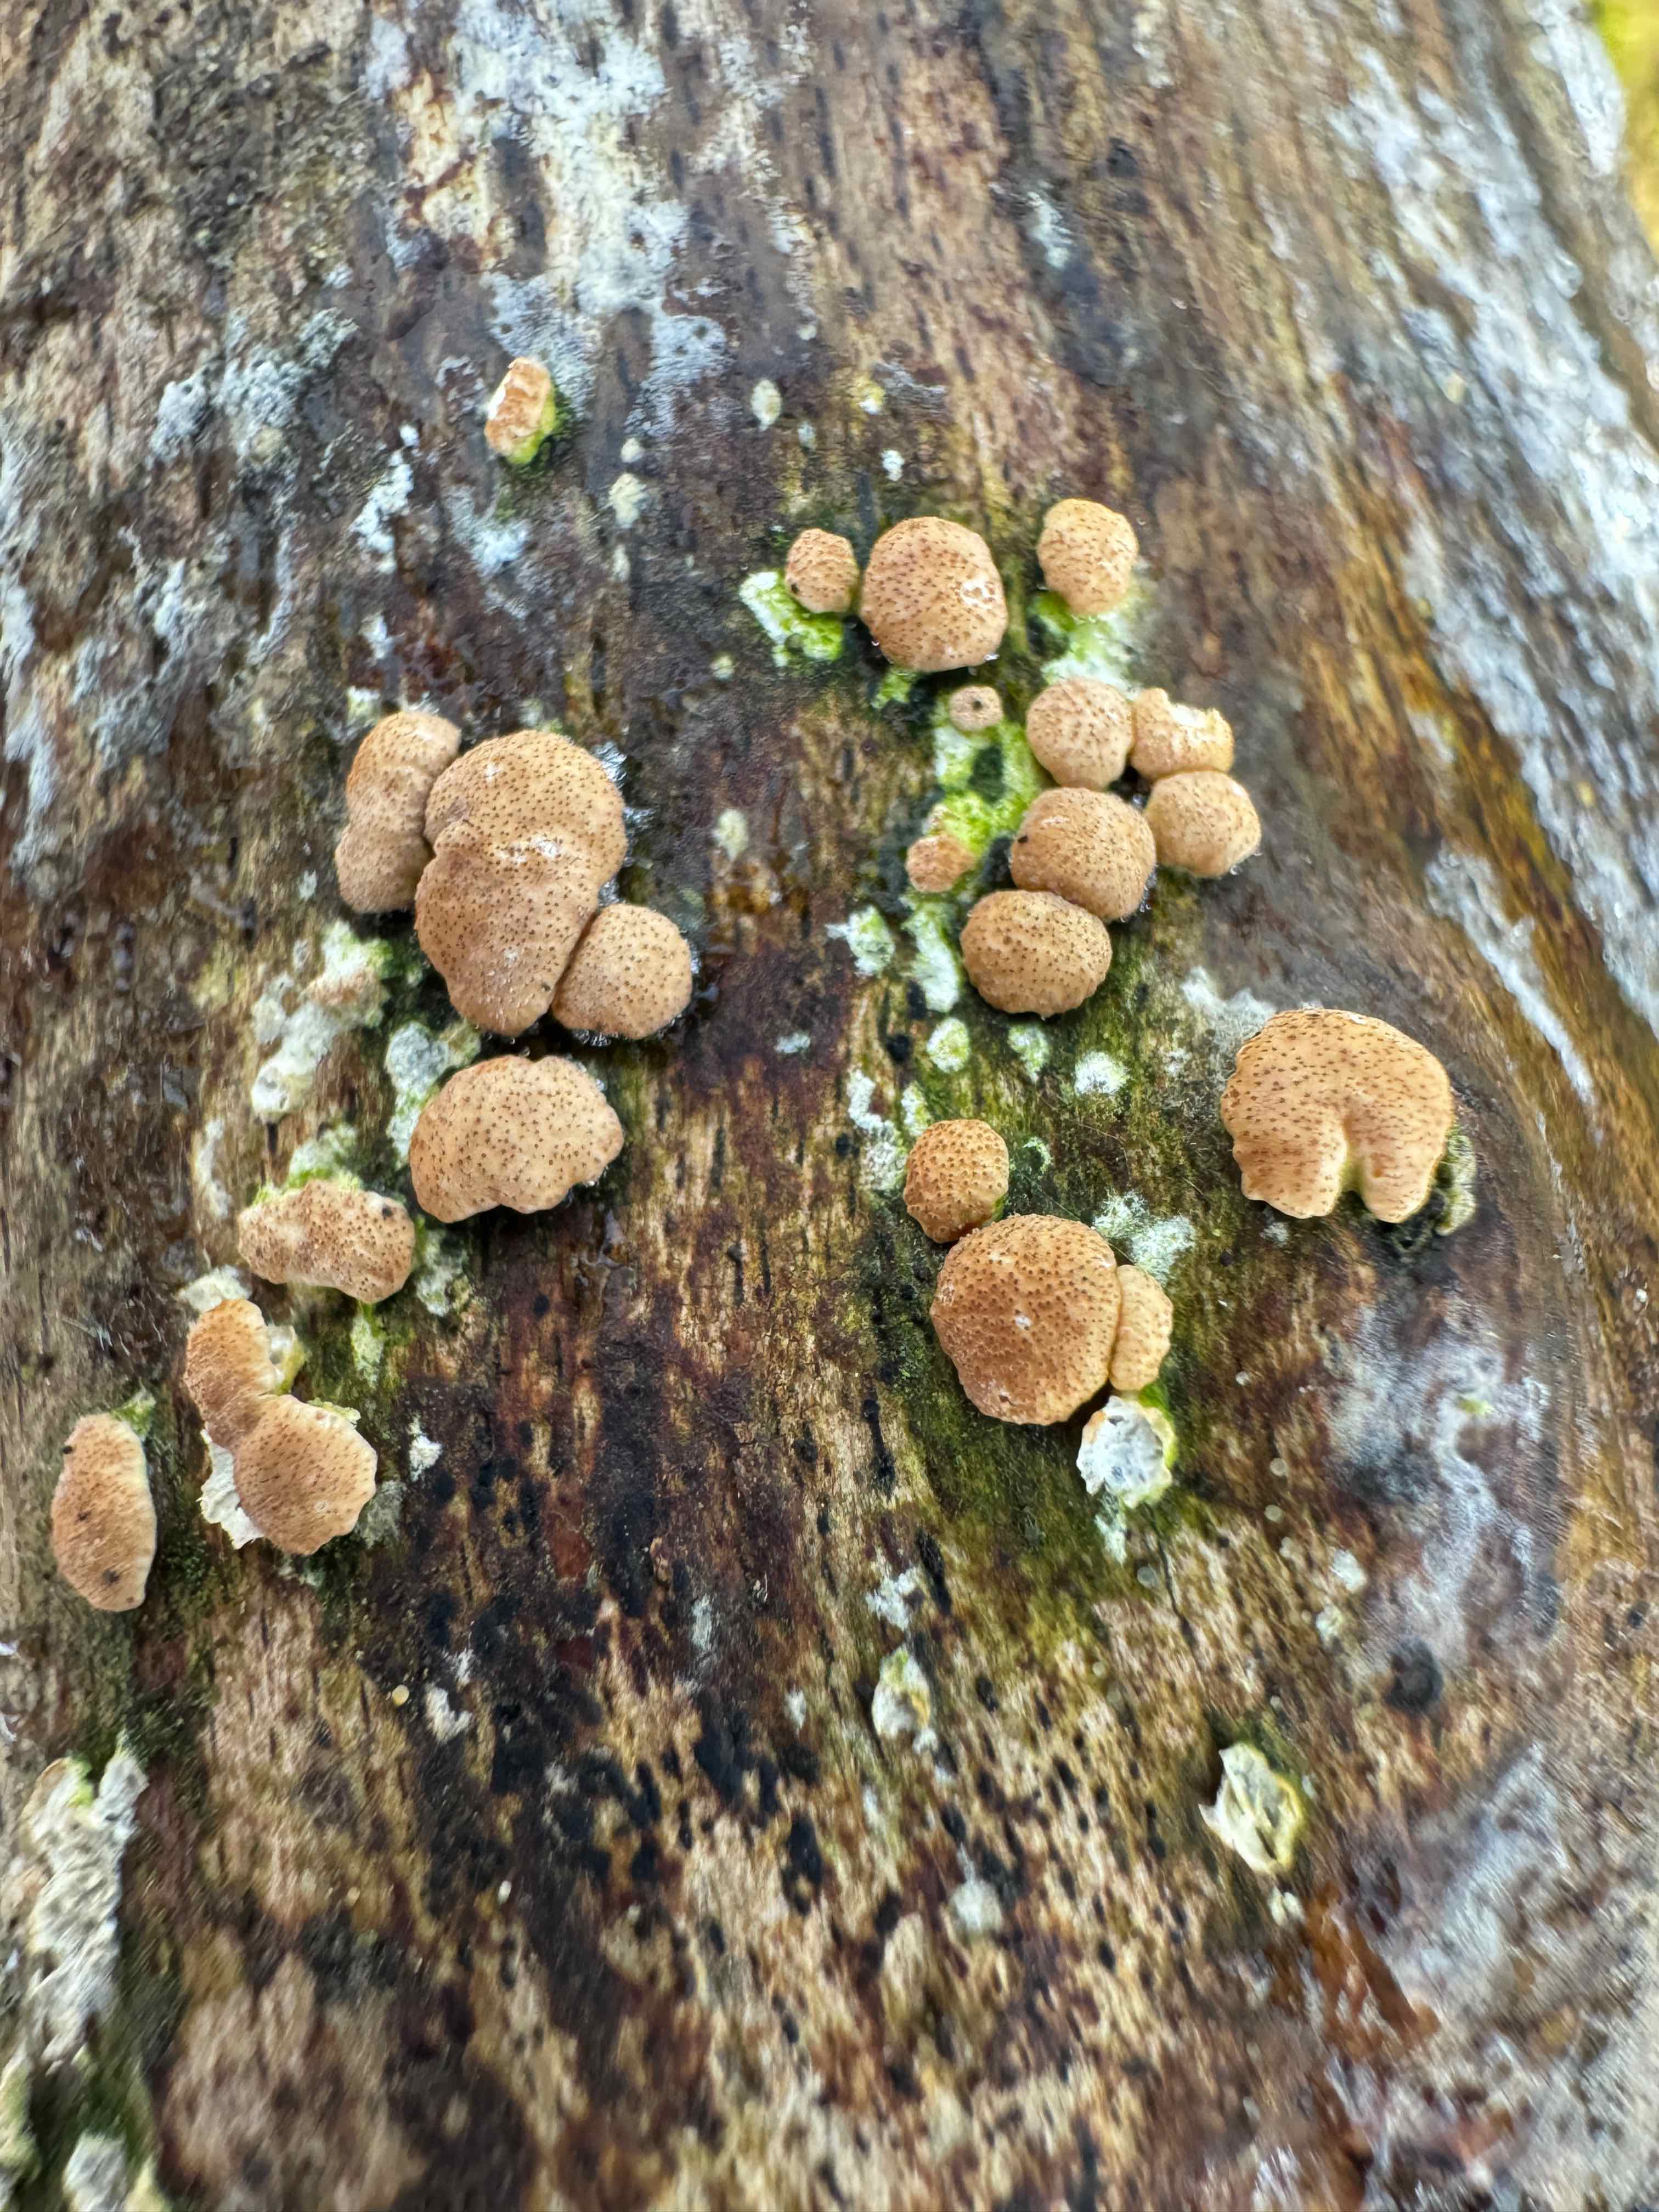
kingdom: Fungi
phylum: Ascomycota
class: Sordariomycetes
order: Hypocreales
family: Hypocreaceae
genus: Trichoderma
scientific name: Trichoderma europaeum
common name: rosabrun kødkerne
